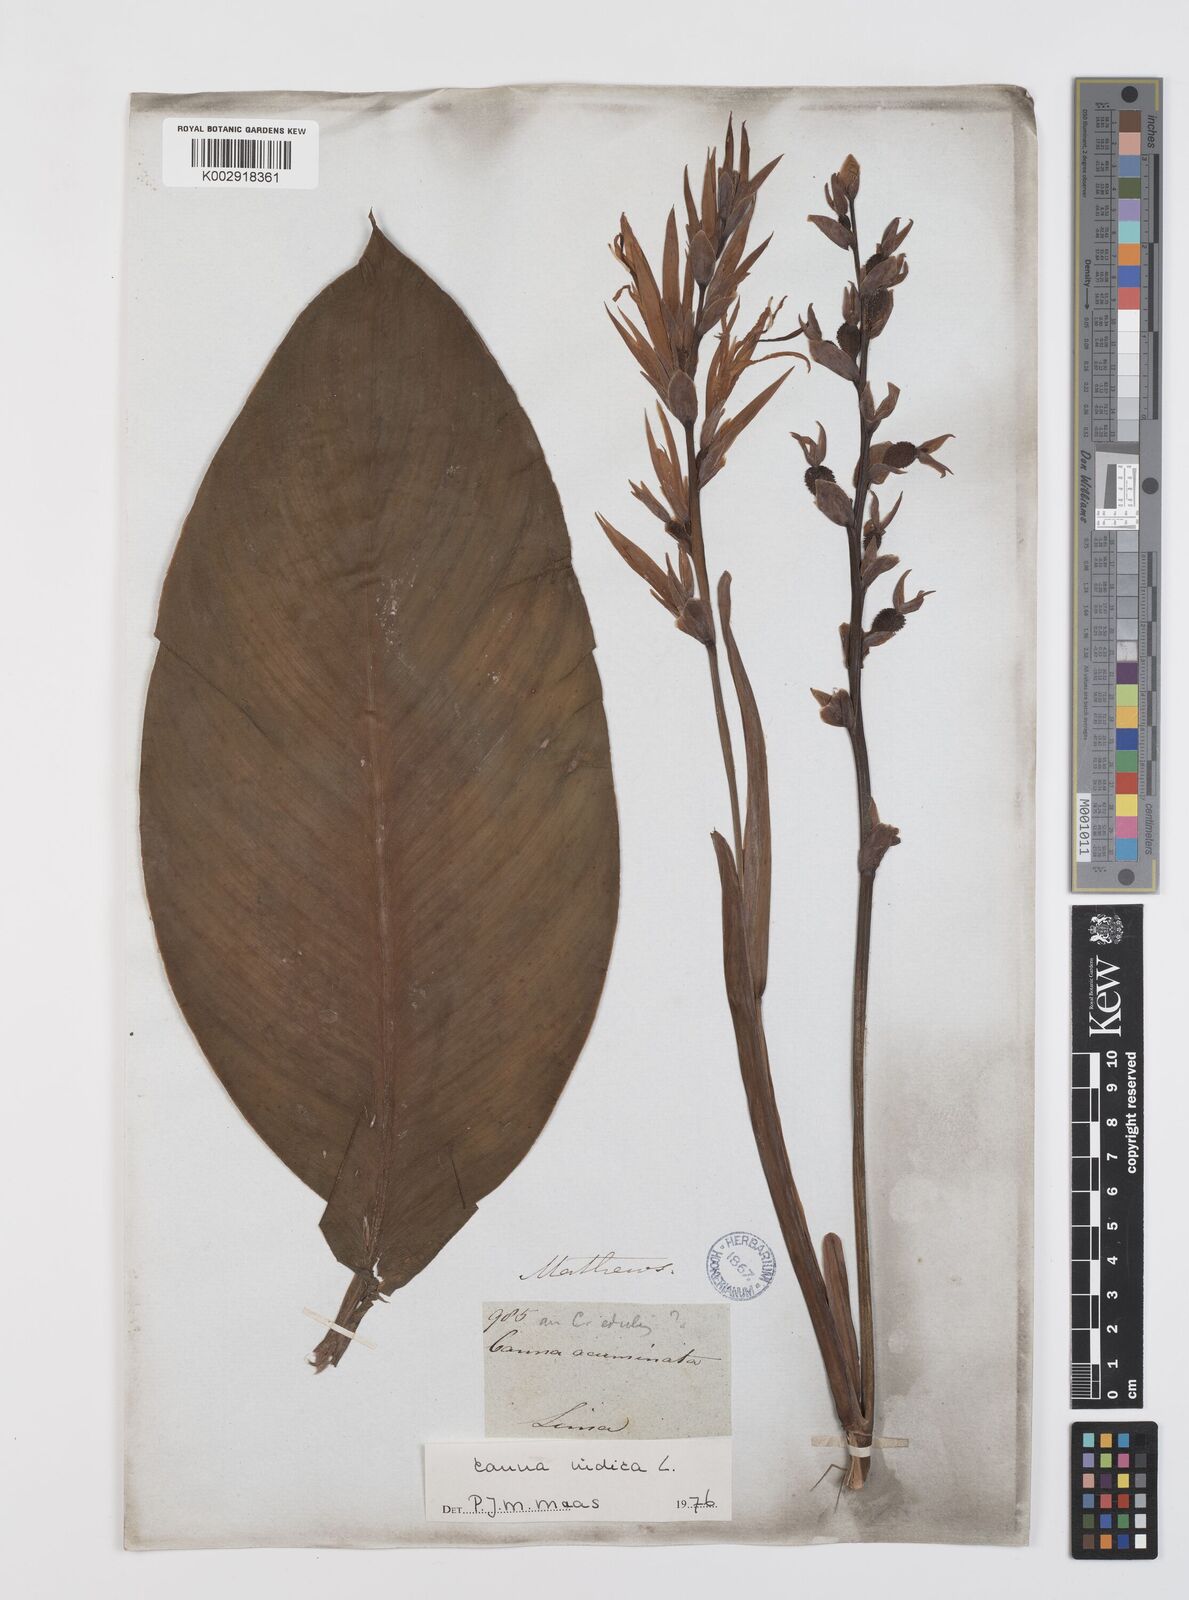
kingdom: Plantae
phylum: Tracheophyta
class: Liliopsida
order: Zingiberales
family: Cannaceae
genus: Canna
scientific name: Canna indica
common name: Indian shot
